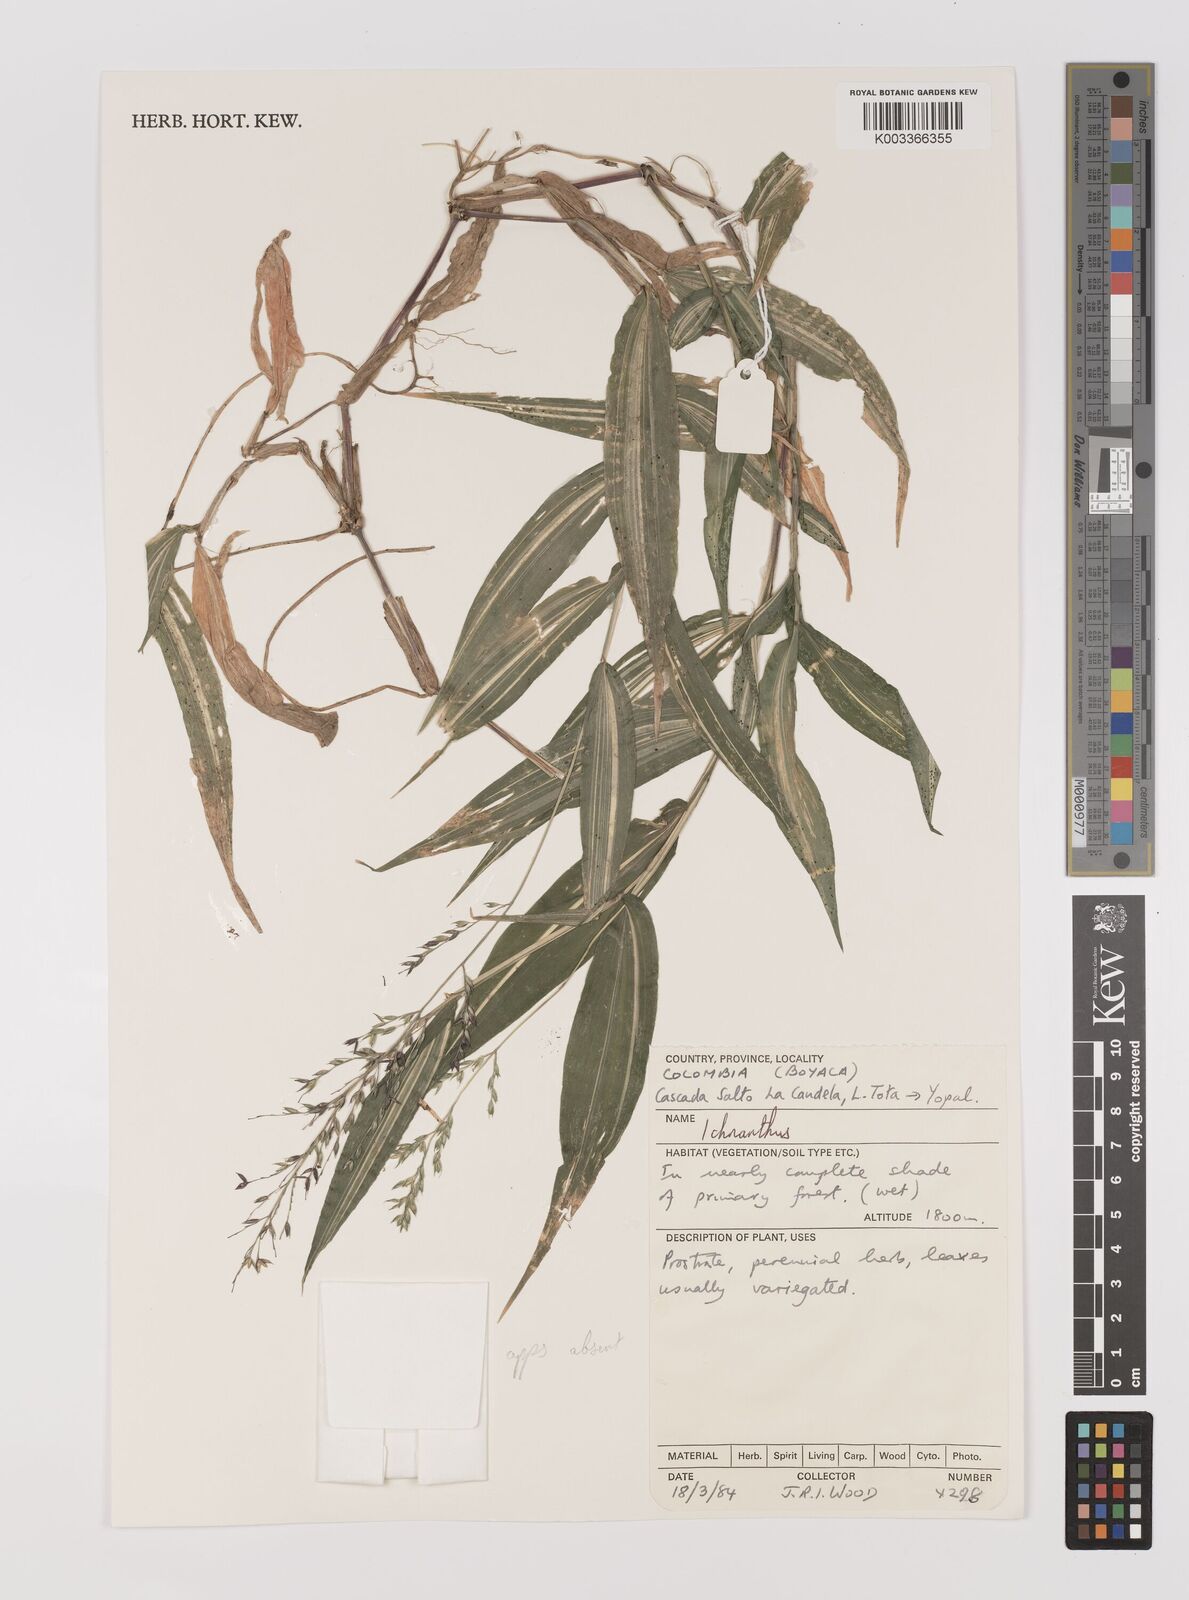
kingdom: Plantae
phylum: Tracheophyta
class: Liliopsida
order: Poales
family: Poaceae
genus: Ichnanthus
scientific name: Ichnanthus tenuis
